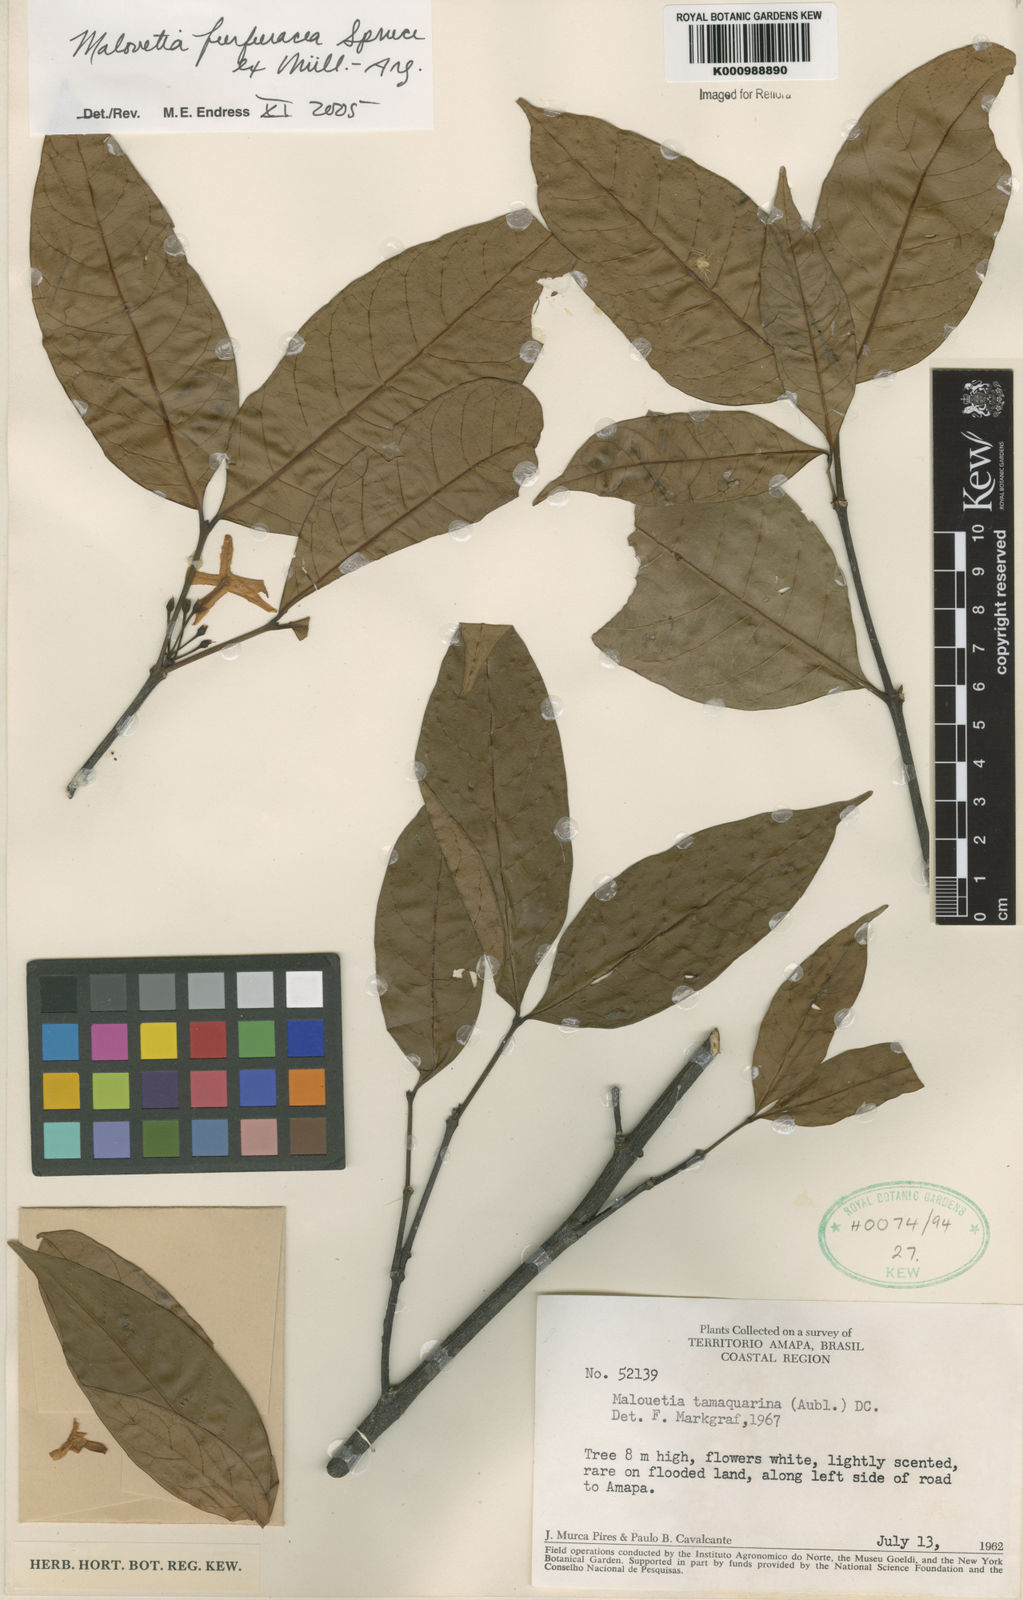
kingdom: Plantae
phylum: Tracheophyta
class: Magnoliopsida
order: Gentianales
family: Apocynaceae
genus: Malouetia
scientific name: Malouetia
